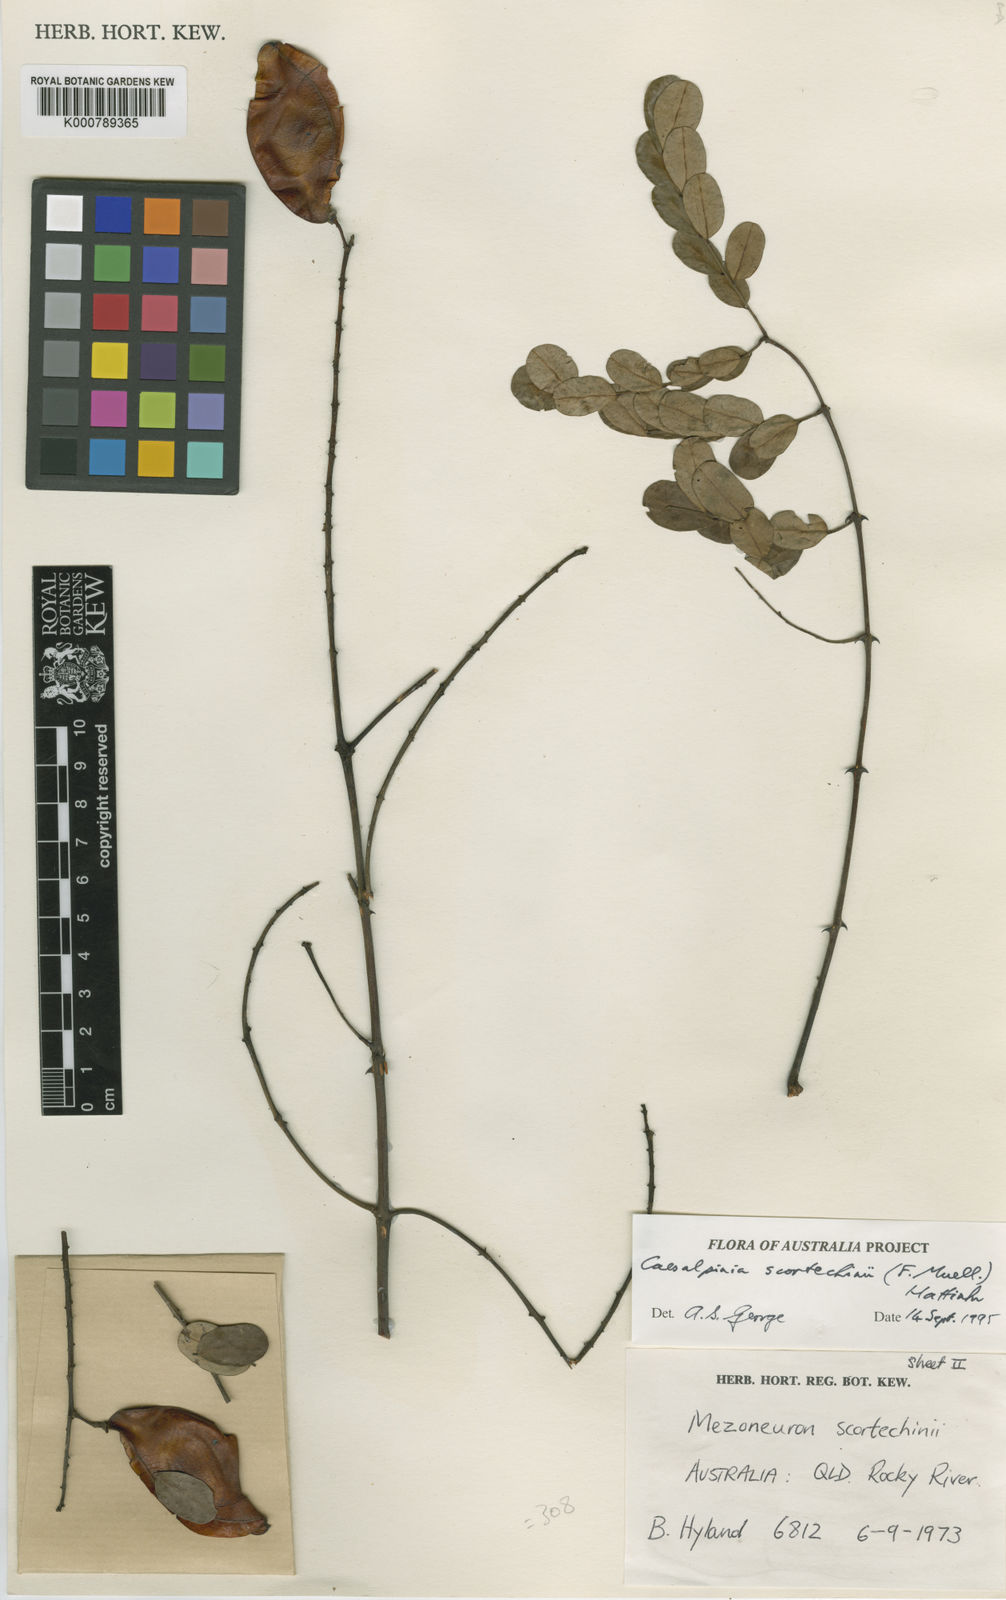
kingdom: Plantae
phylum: Tracheophyta
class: Magnoliopsida
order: Fabales
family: Fabaceae
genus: Mezoneuron
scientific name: Mezoneuron erythrocarpum
